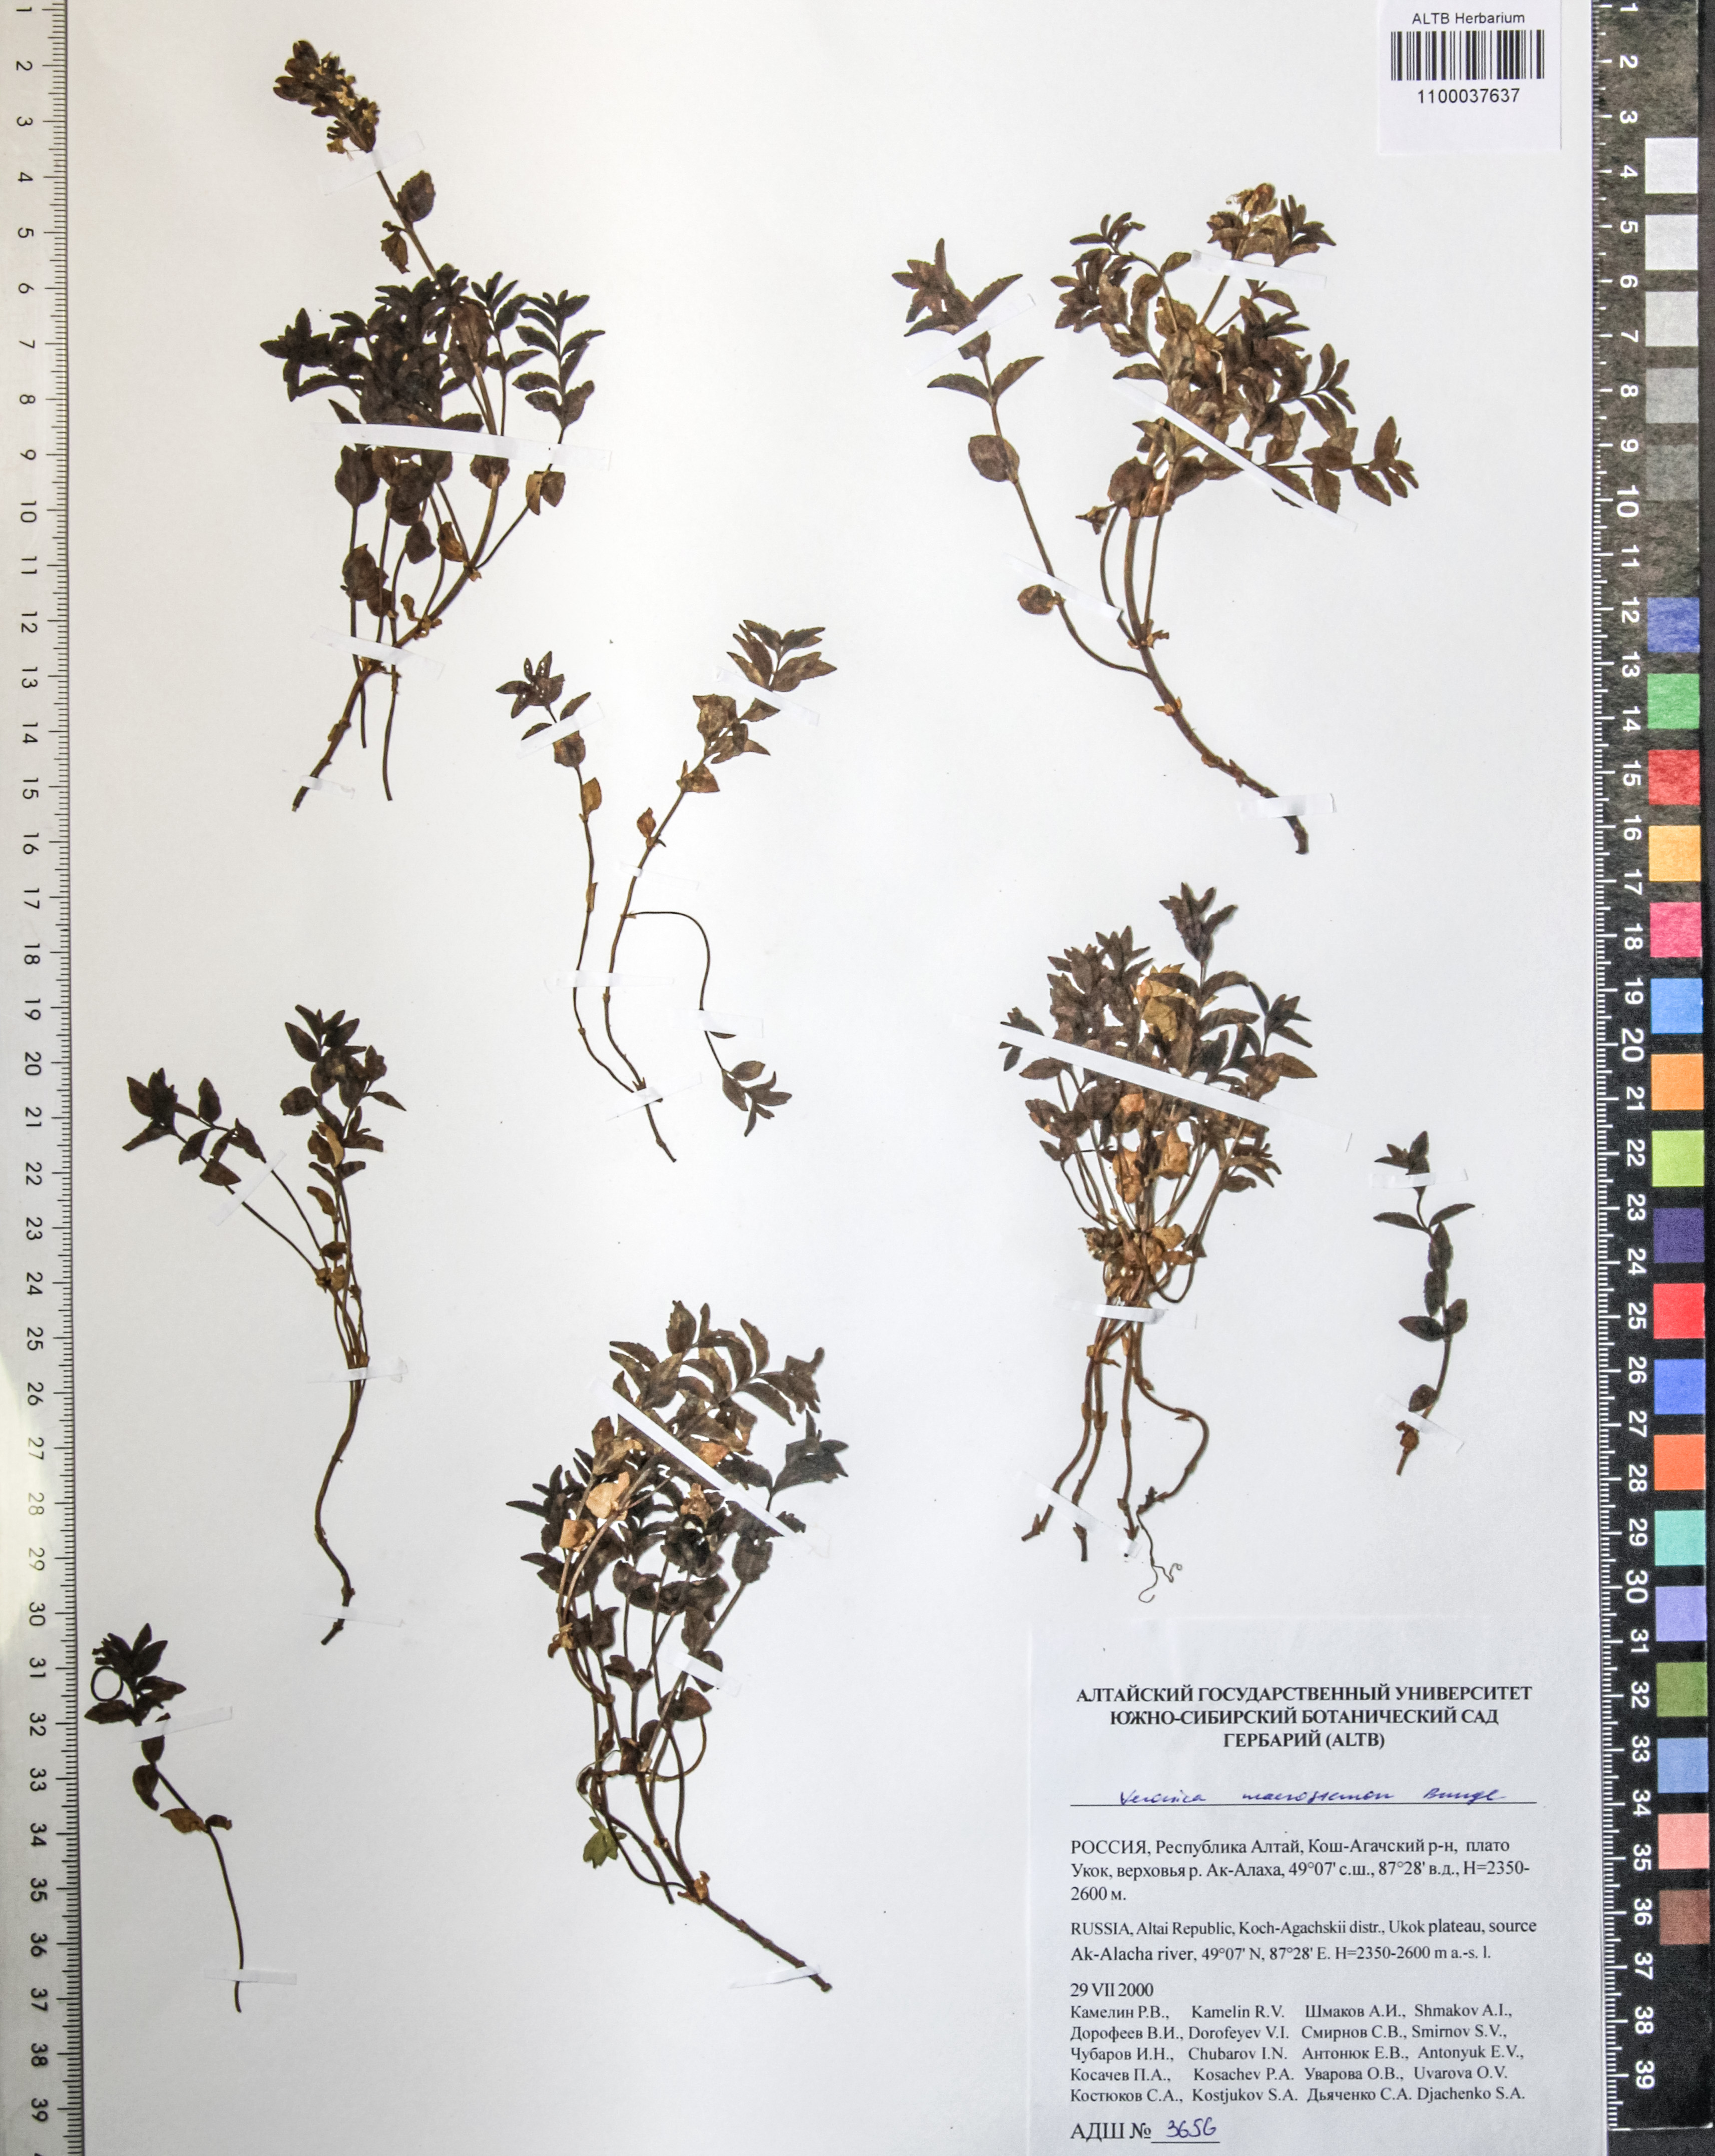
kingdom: Plantae
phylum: Tracheophyta
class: Magnoliopsida
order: Lamiales
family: Plantaginaceae
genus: Veronica
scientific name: Veronica macrostemon
